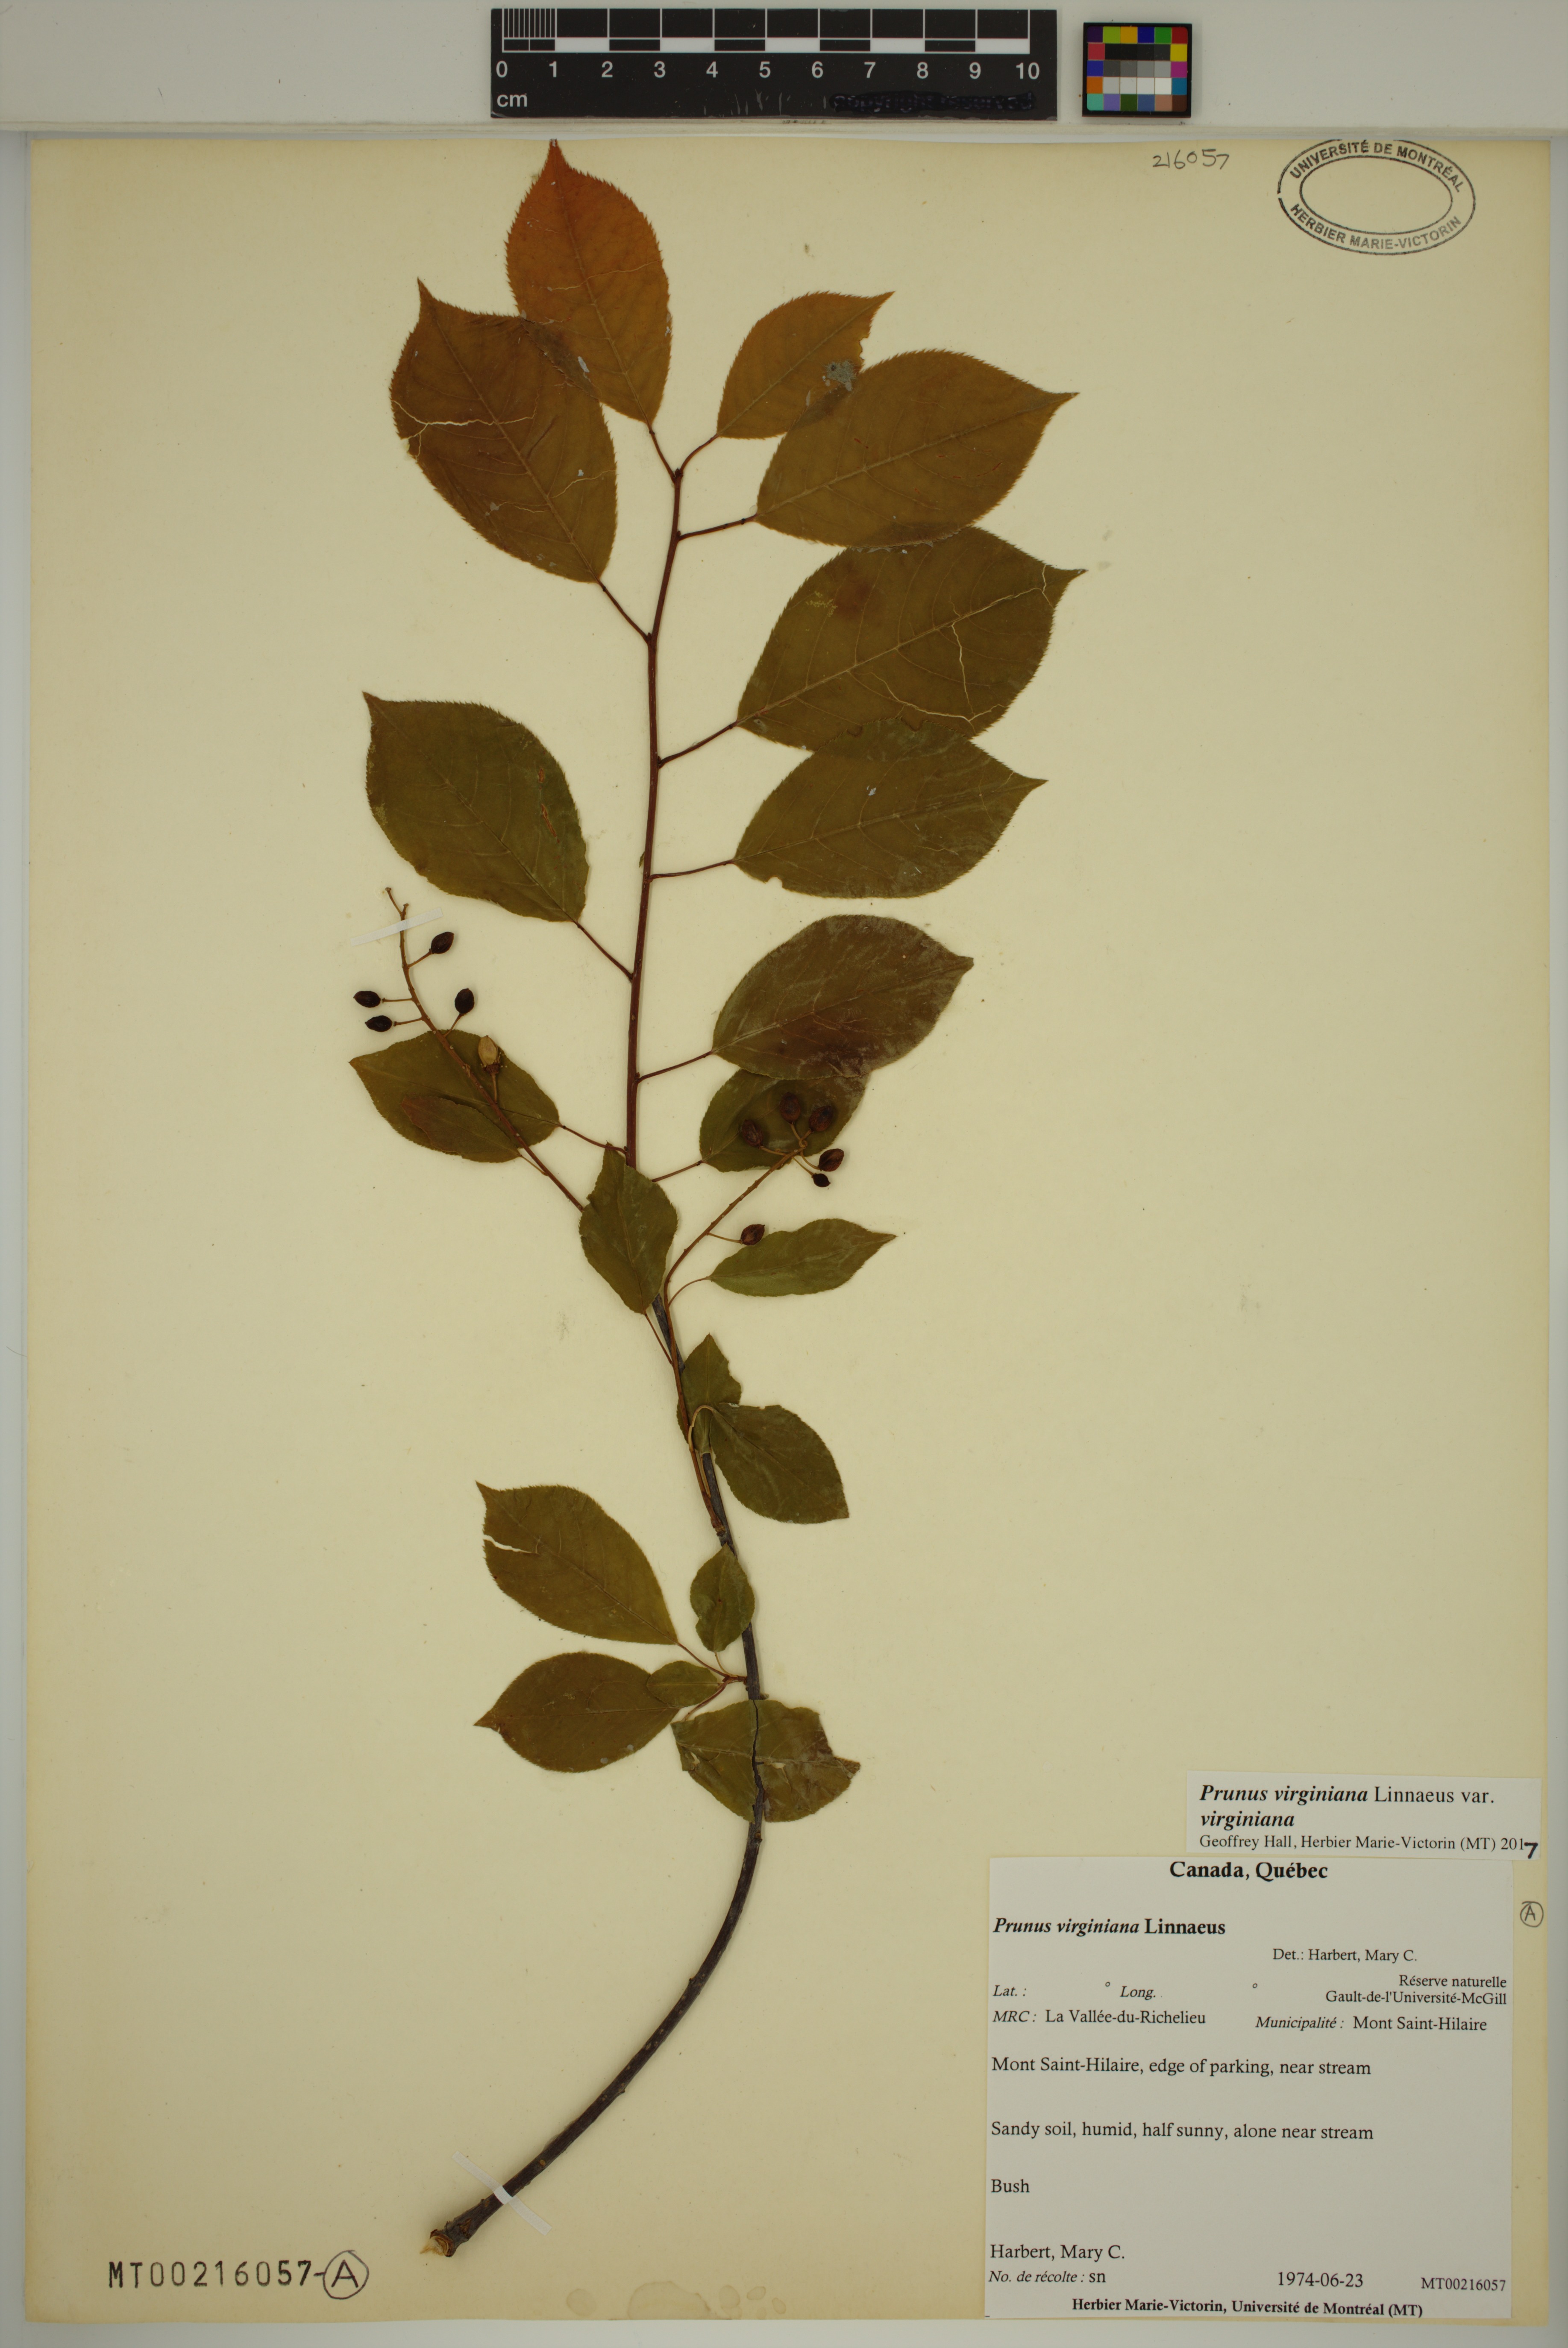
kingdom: Plantae
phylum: Tracheophyta
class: Magnoliopsida
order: Rosales
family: Rosaceae
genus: Prunus
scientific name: Prunus virginiana
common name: Chokecherry
